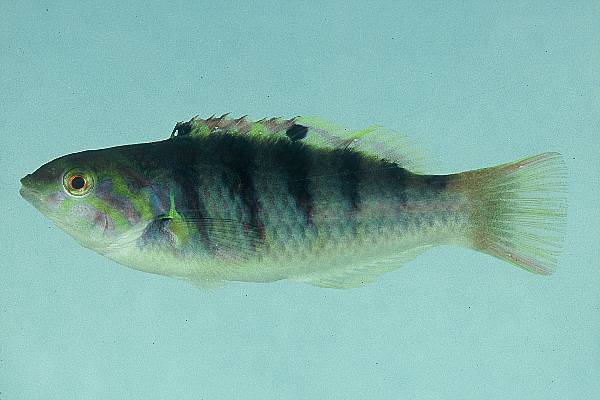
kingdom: Animalia
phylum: Chordata
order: Perciformes
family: Labridae
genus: Thalassoma
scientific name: Thalassoma hardwicke
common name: Sixbar wrasse
